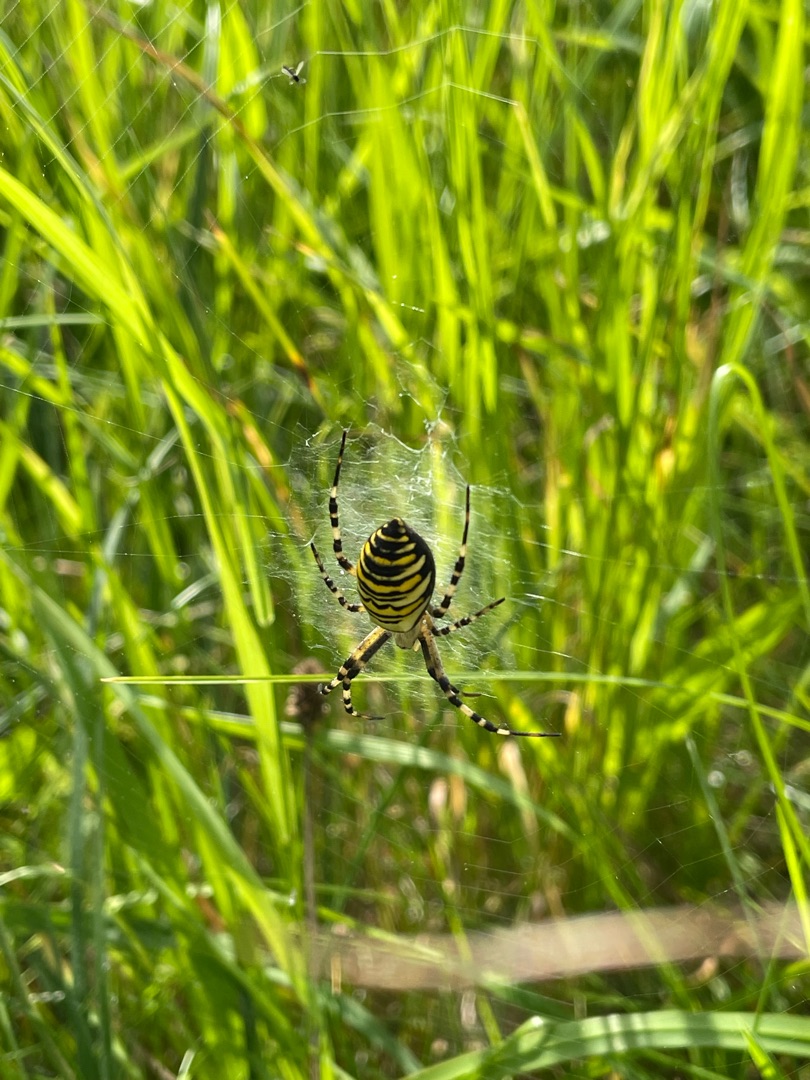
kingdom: Animalia
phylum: Arthropoda
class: Arachnida
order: Araneae
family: Araneidae
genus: Argiope
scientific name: Argiope bruennichi
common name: Hvepseedderkop
